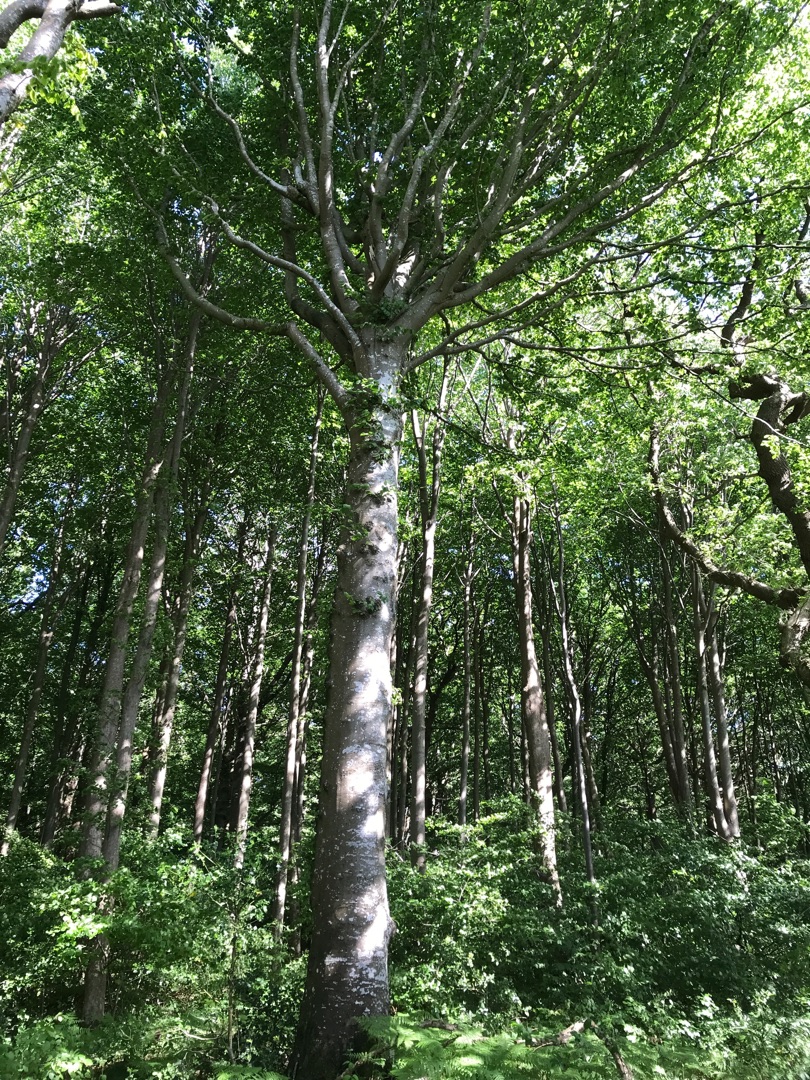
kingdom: Plantae
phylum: Tracheophyta
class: Magnoliopsida
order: Fagales
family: Fagaceae
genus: Fagus
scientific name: Fagus sylvatica
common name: Bøg
